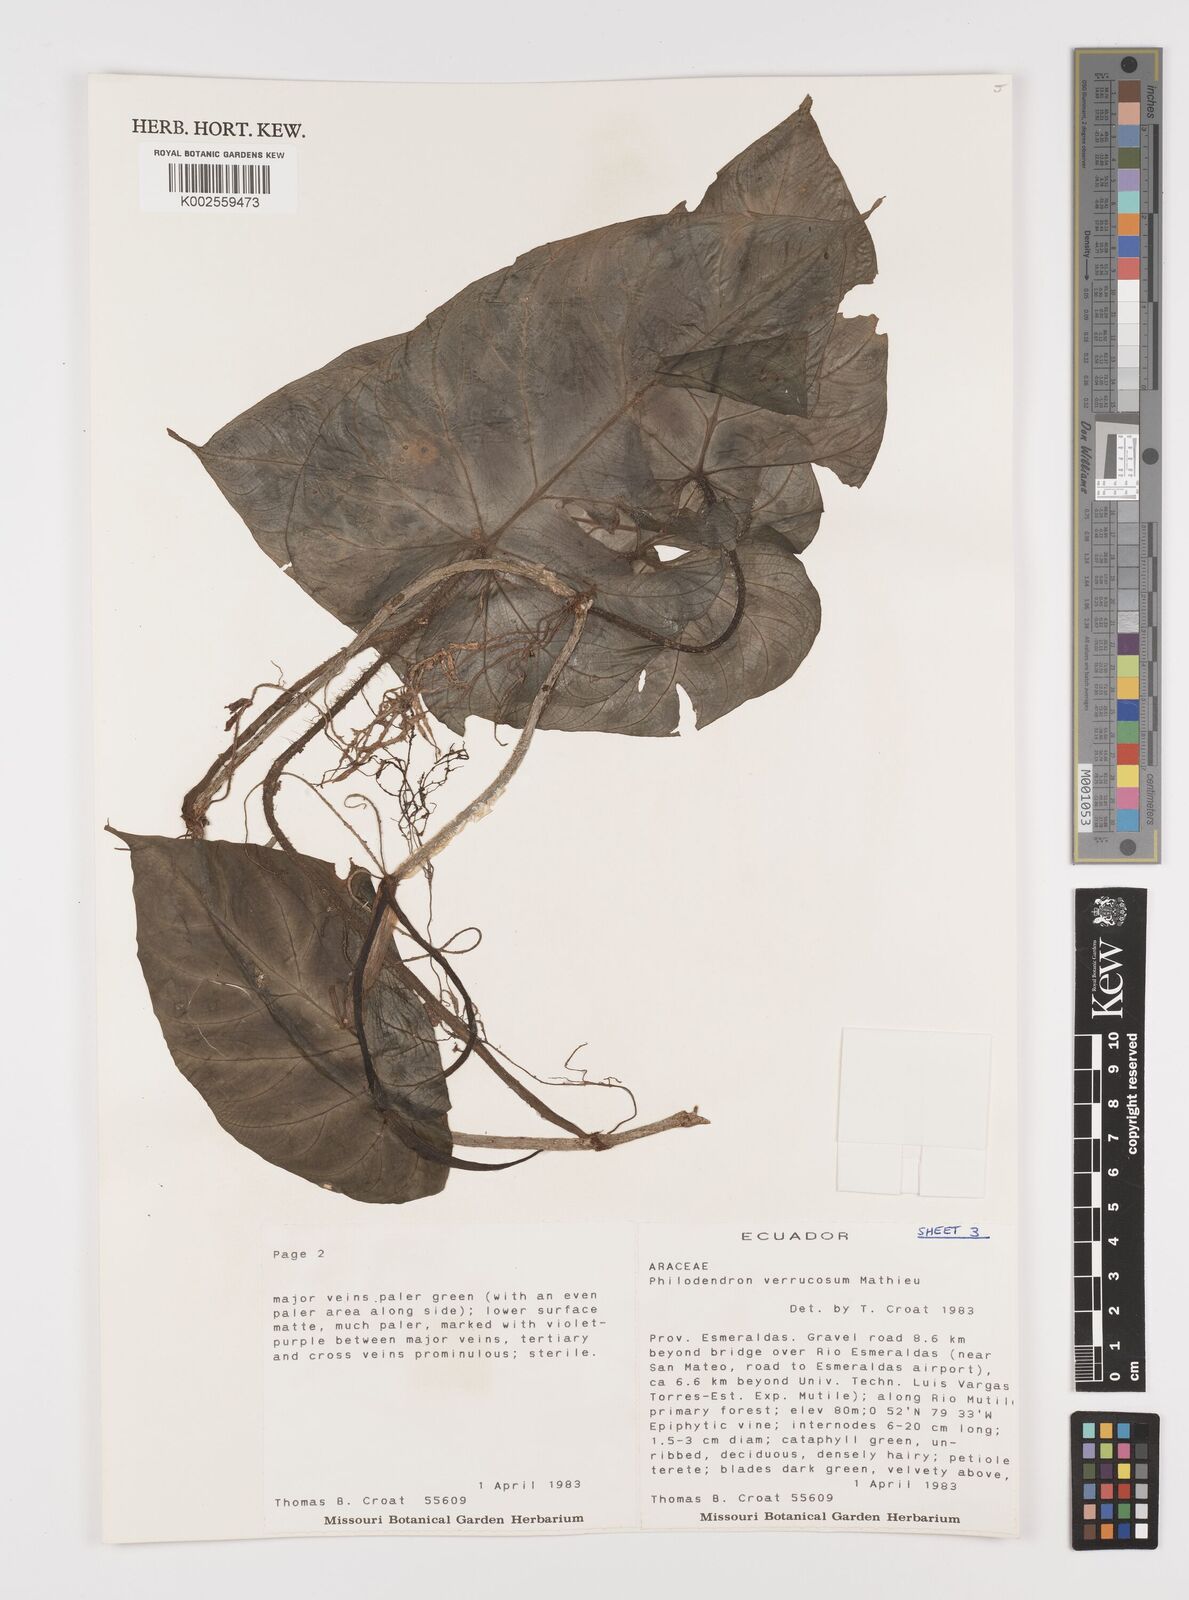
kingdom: Plantae
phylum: Tracheophyta
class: Liliopsida
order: Alismatales
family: Araceae
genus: Philodendron
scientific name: Philodendron verrucosum
